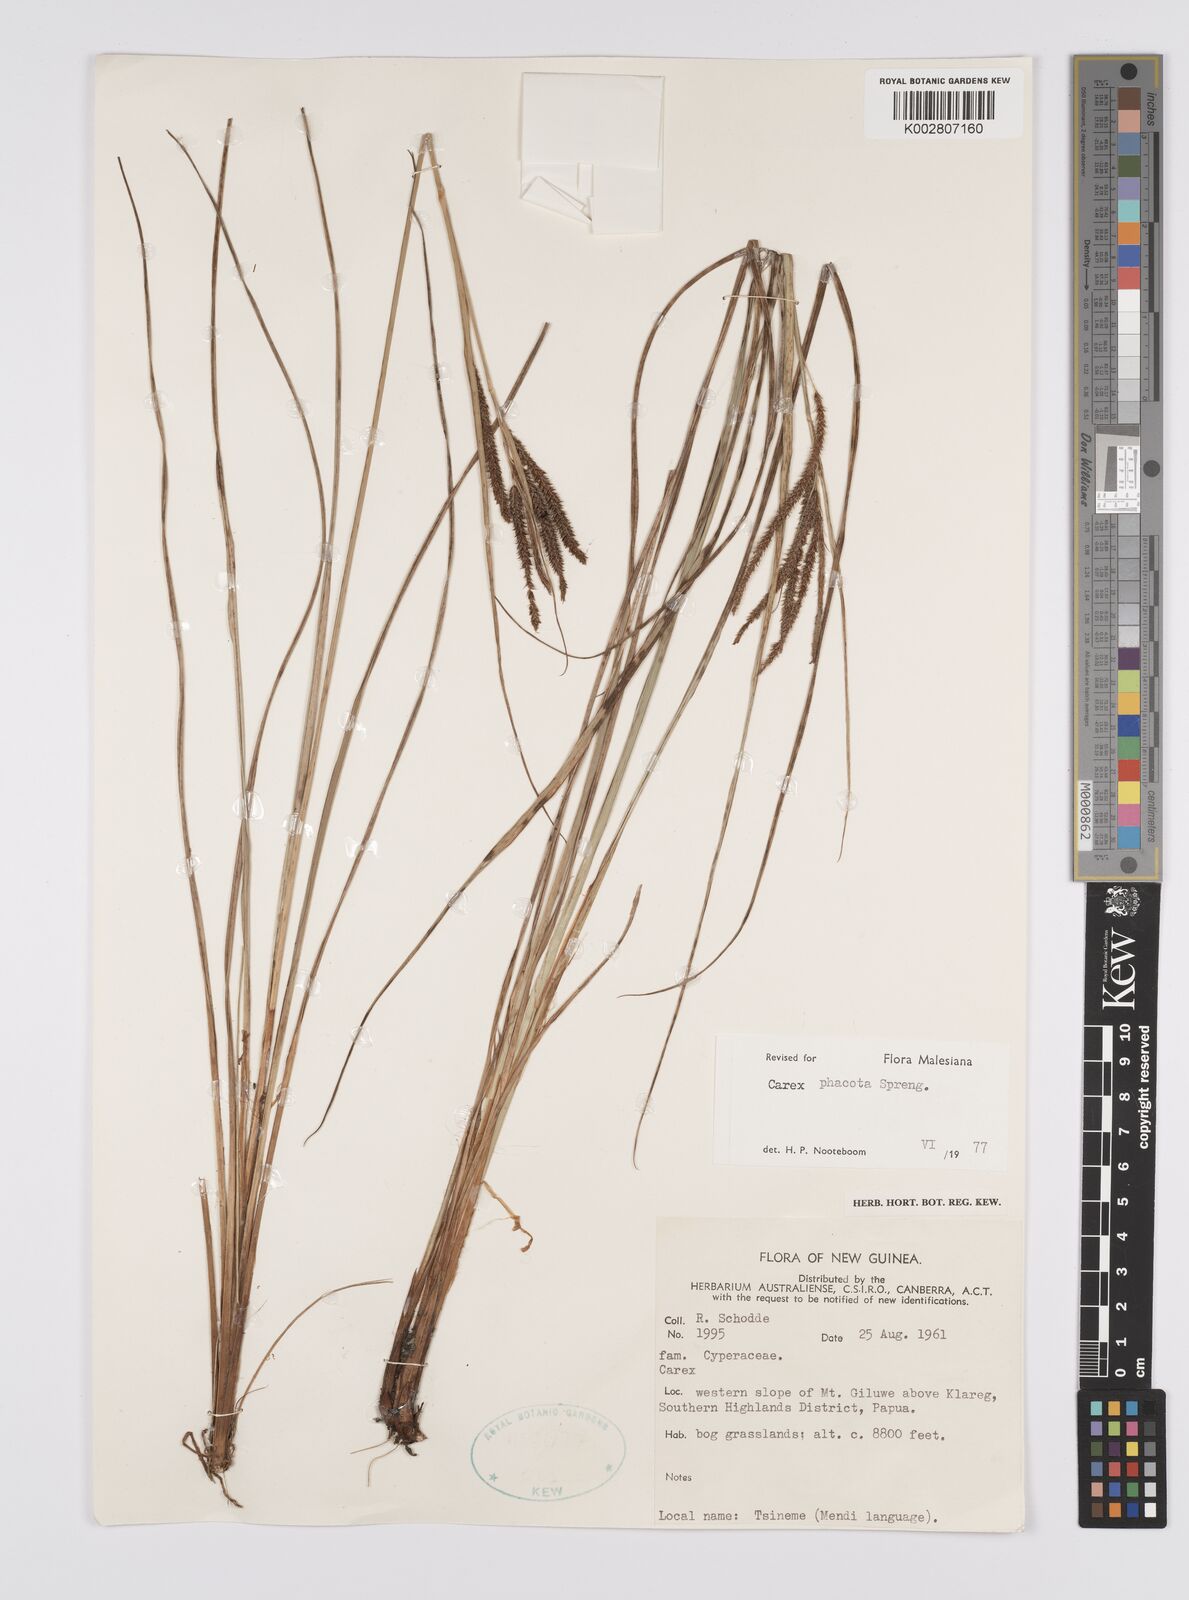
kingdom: Plantae
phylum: Tracheophyta
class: Liliopsida
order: Poales
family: Cyperaceae
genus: Carex
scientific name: Carex phacota
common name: Lakeshore sedge
